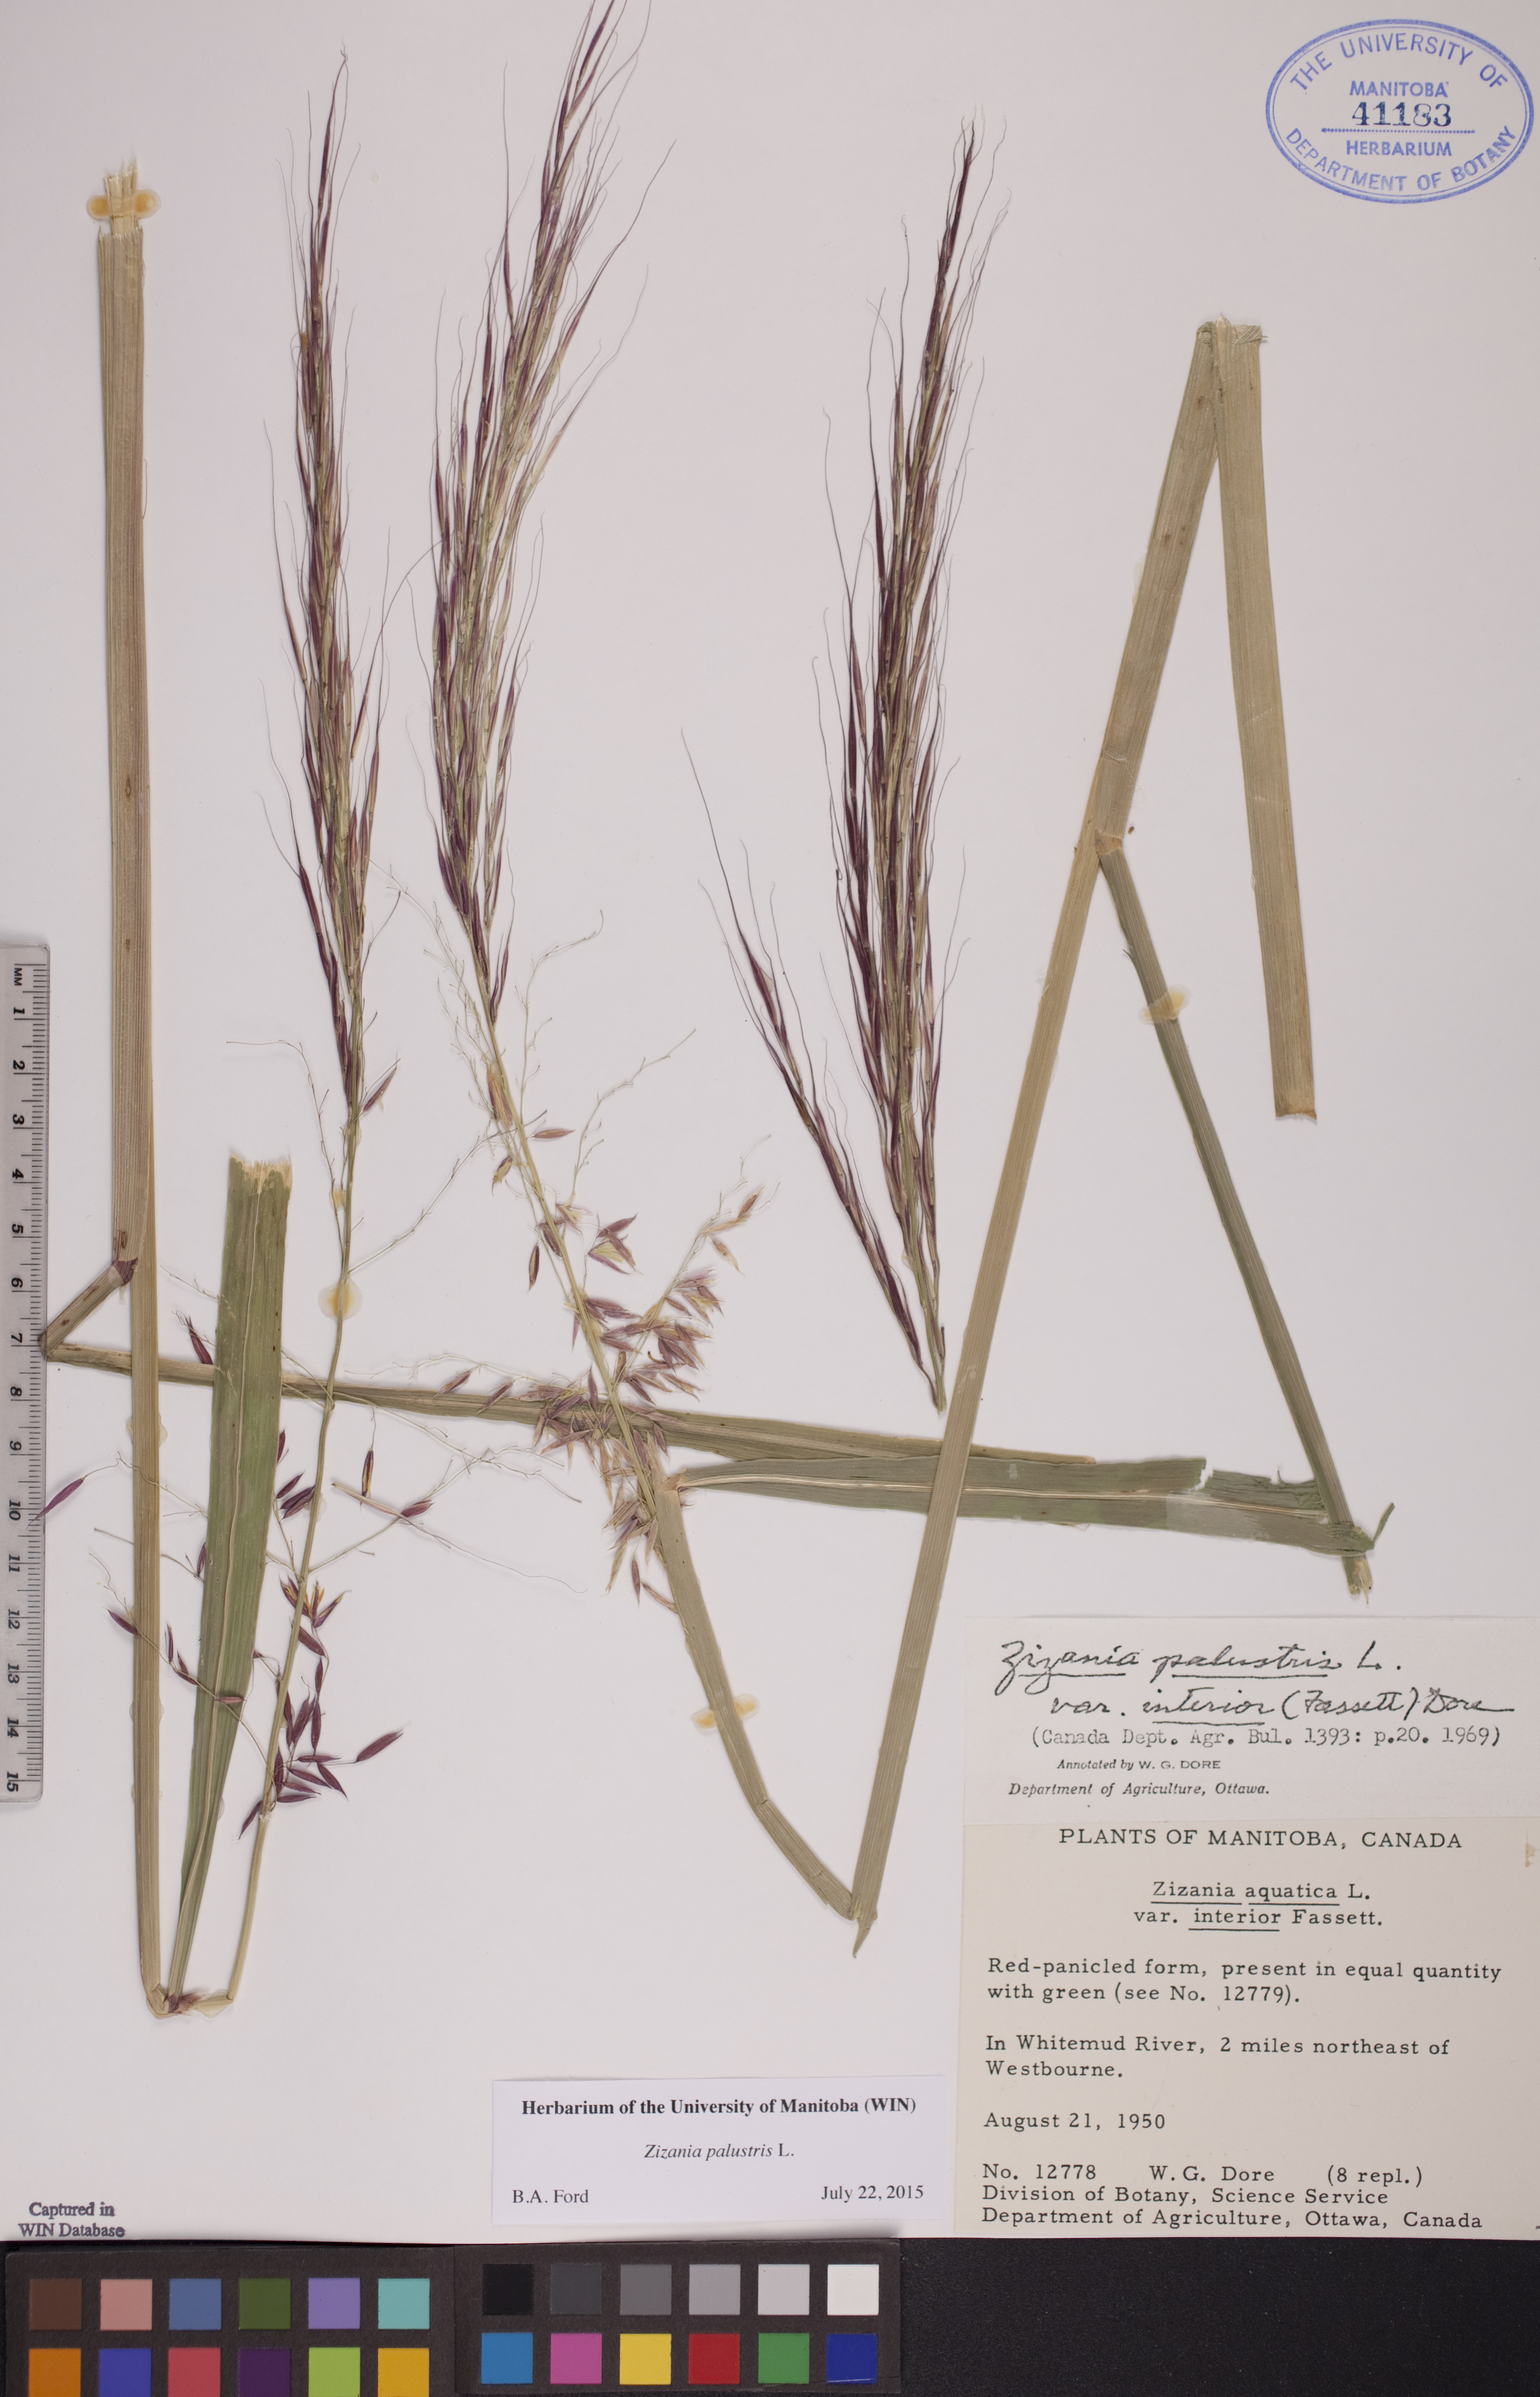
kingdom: Plantae
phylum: Tracheophyta
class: Liliopsida
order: Poales
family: Poaceae
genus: Zizania
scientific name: Zizania palustris
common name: Northern wild rice
